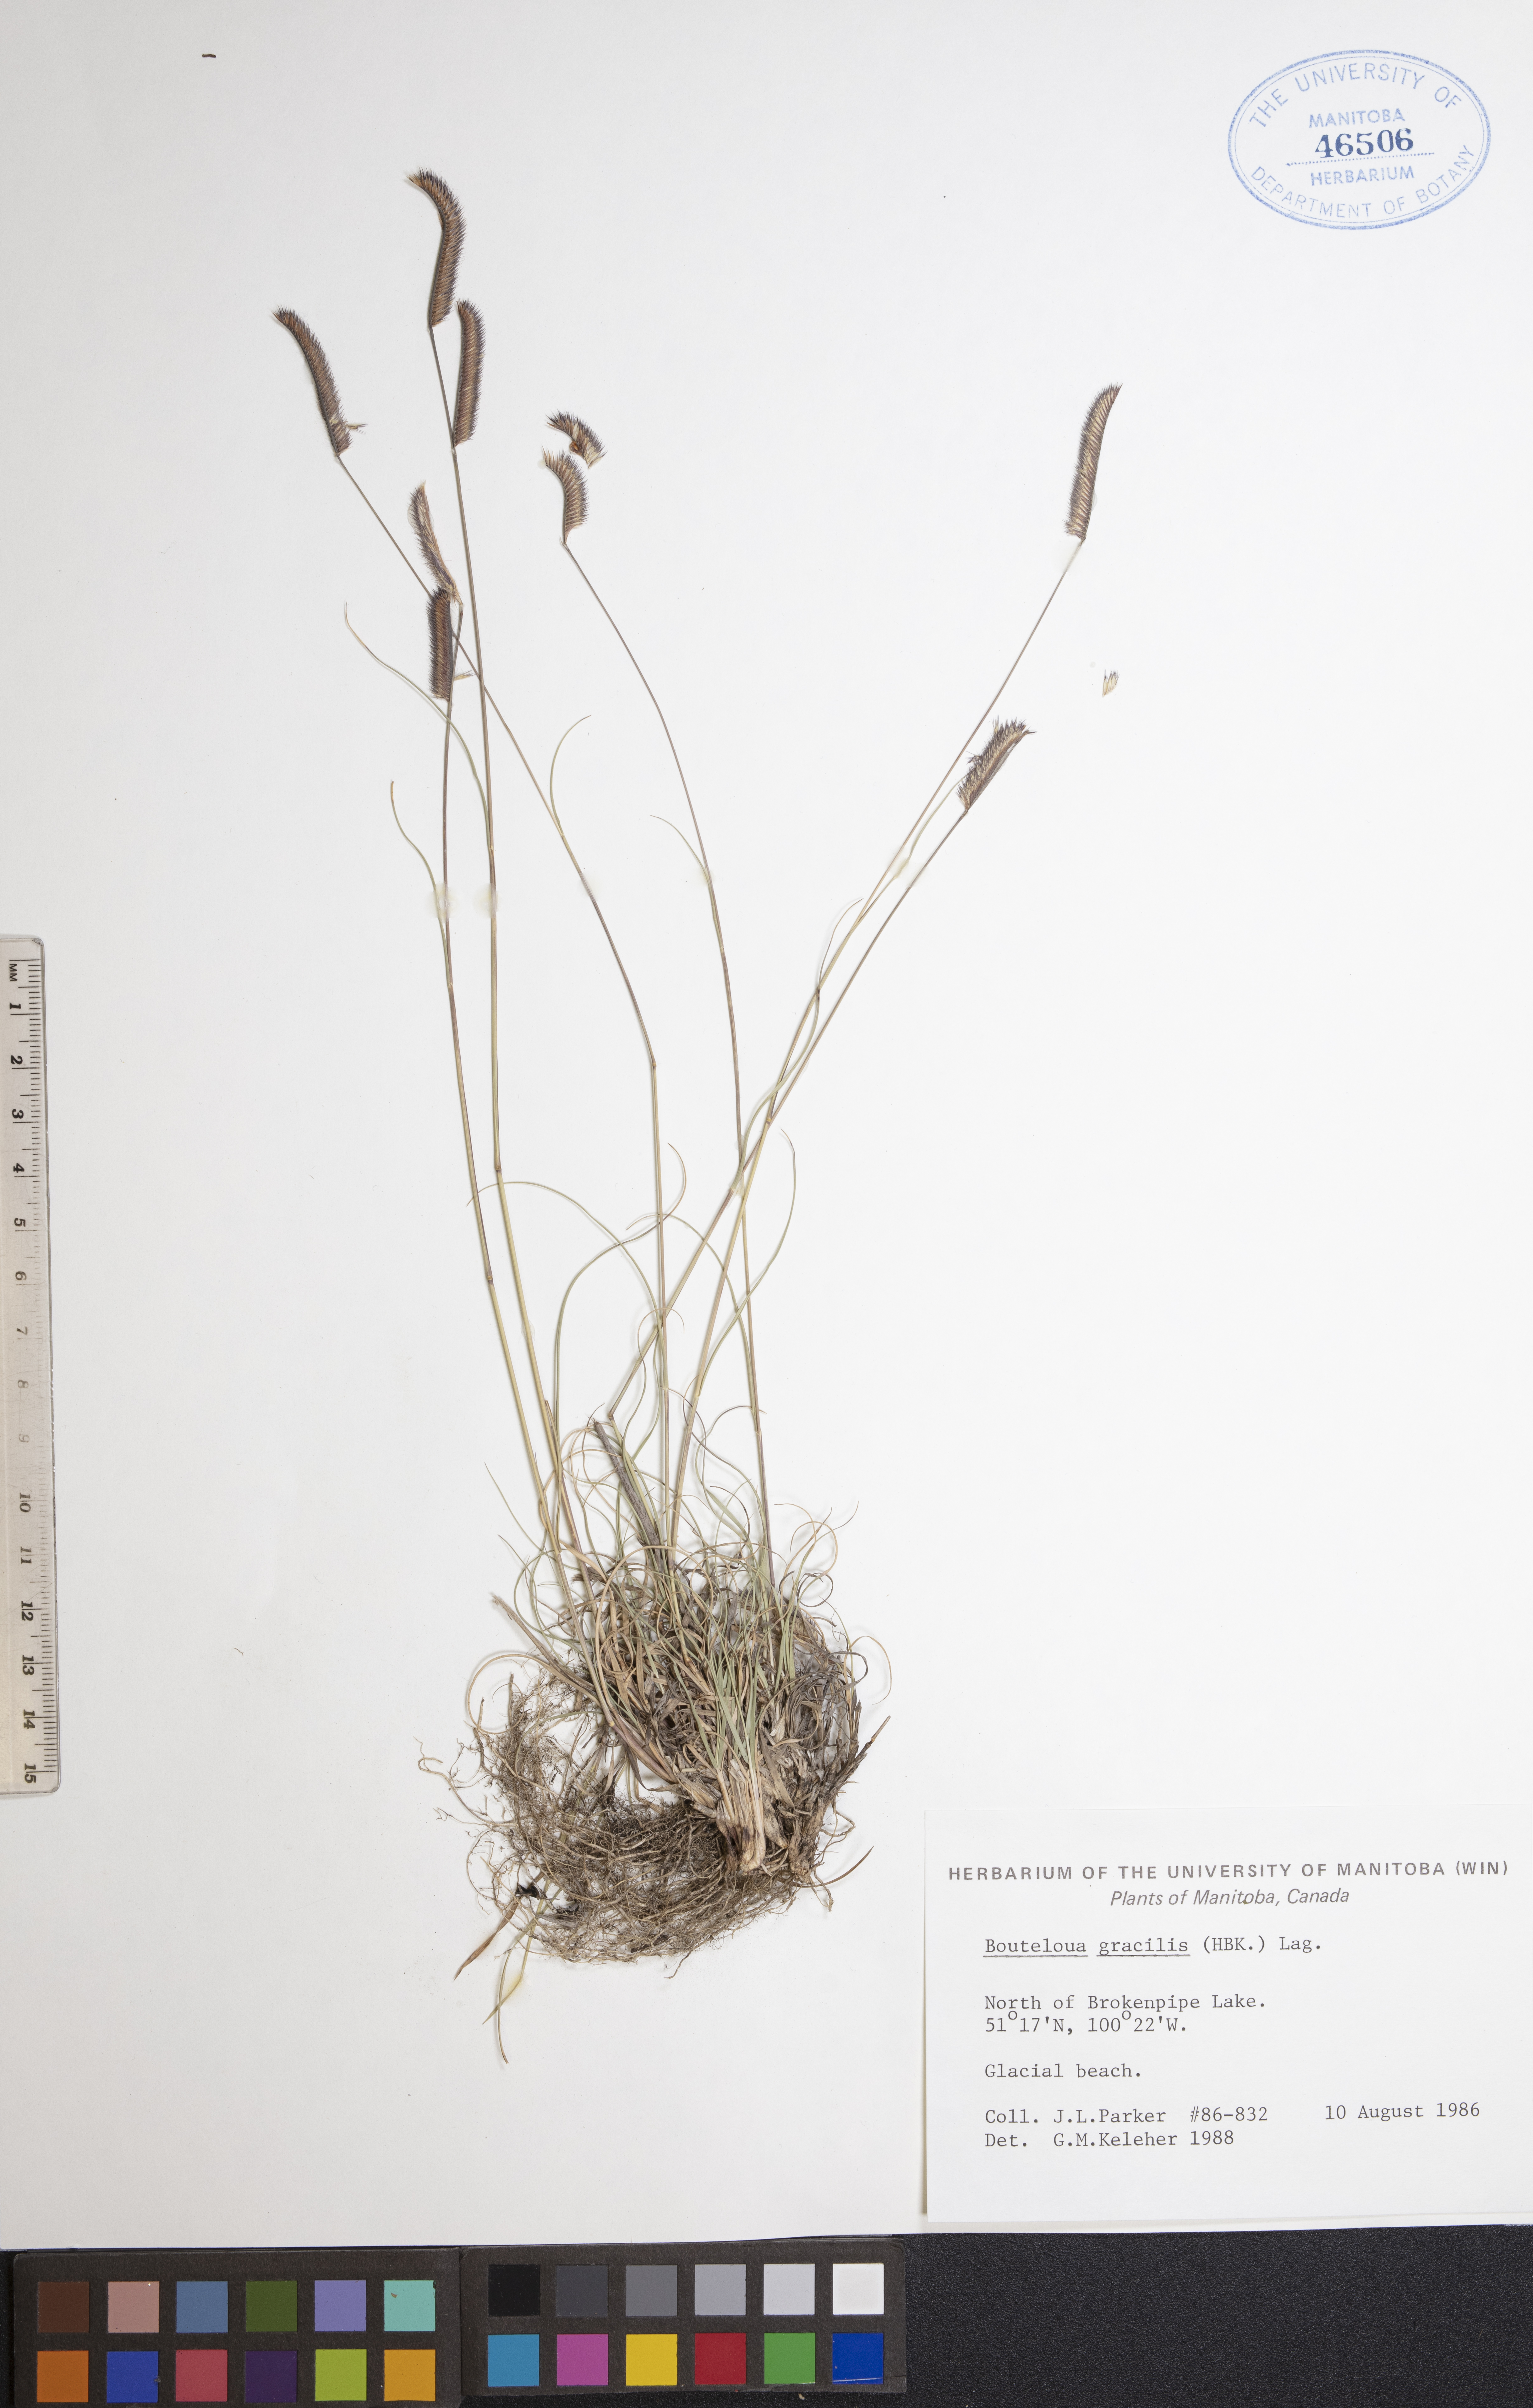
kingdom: Plantae
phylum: Tracheophyta
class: Liliopsida
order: Poales
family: Poaceae
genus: Bouteloua
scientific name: Bouteloua gracilis
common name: Blue grama
